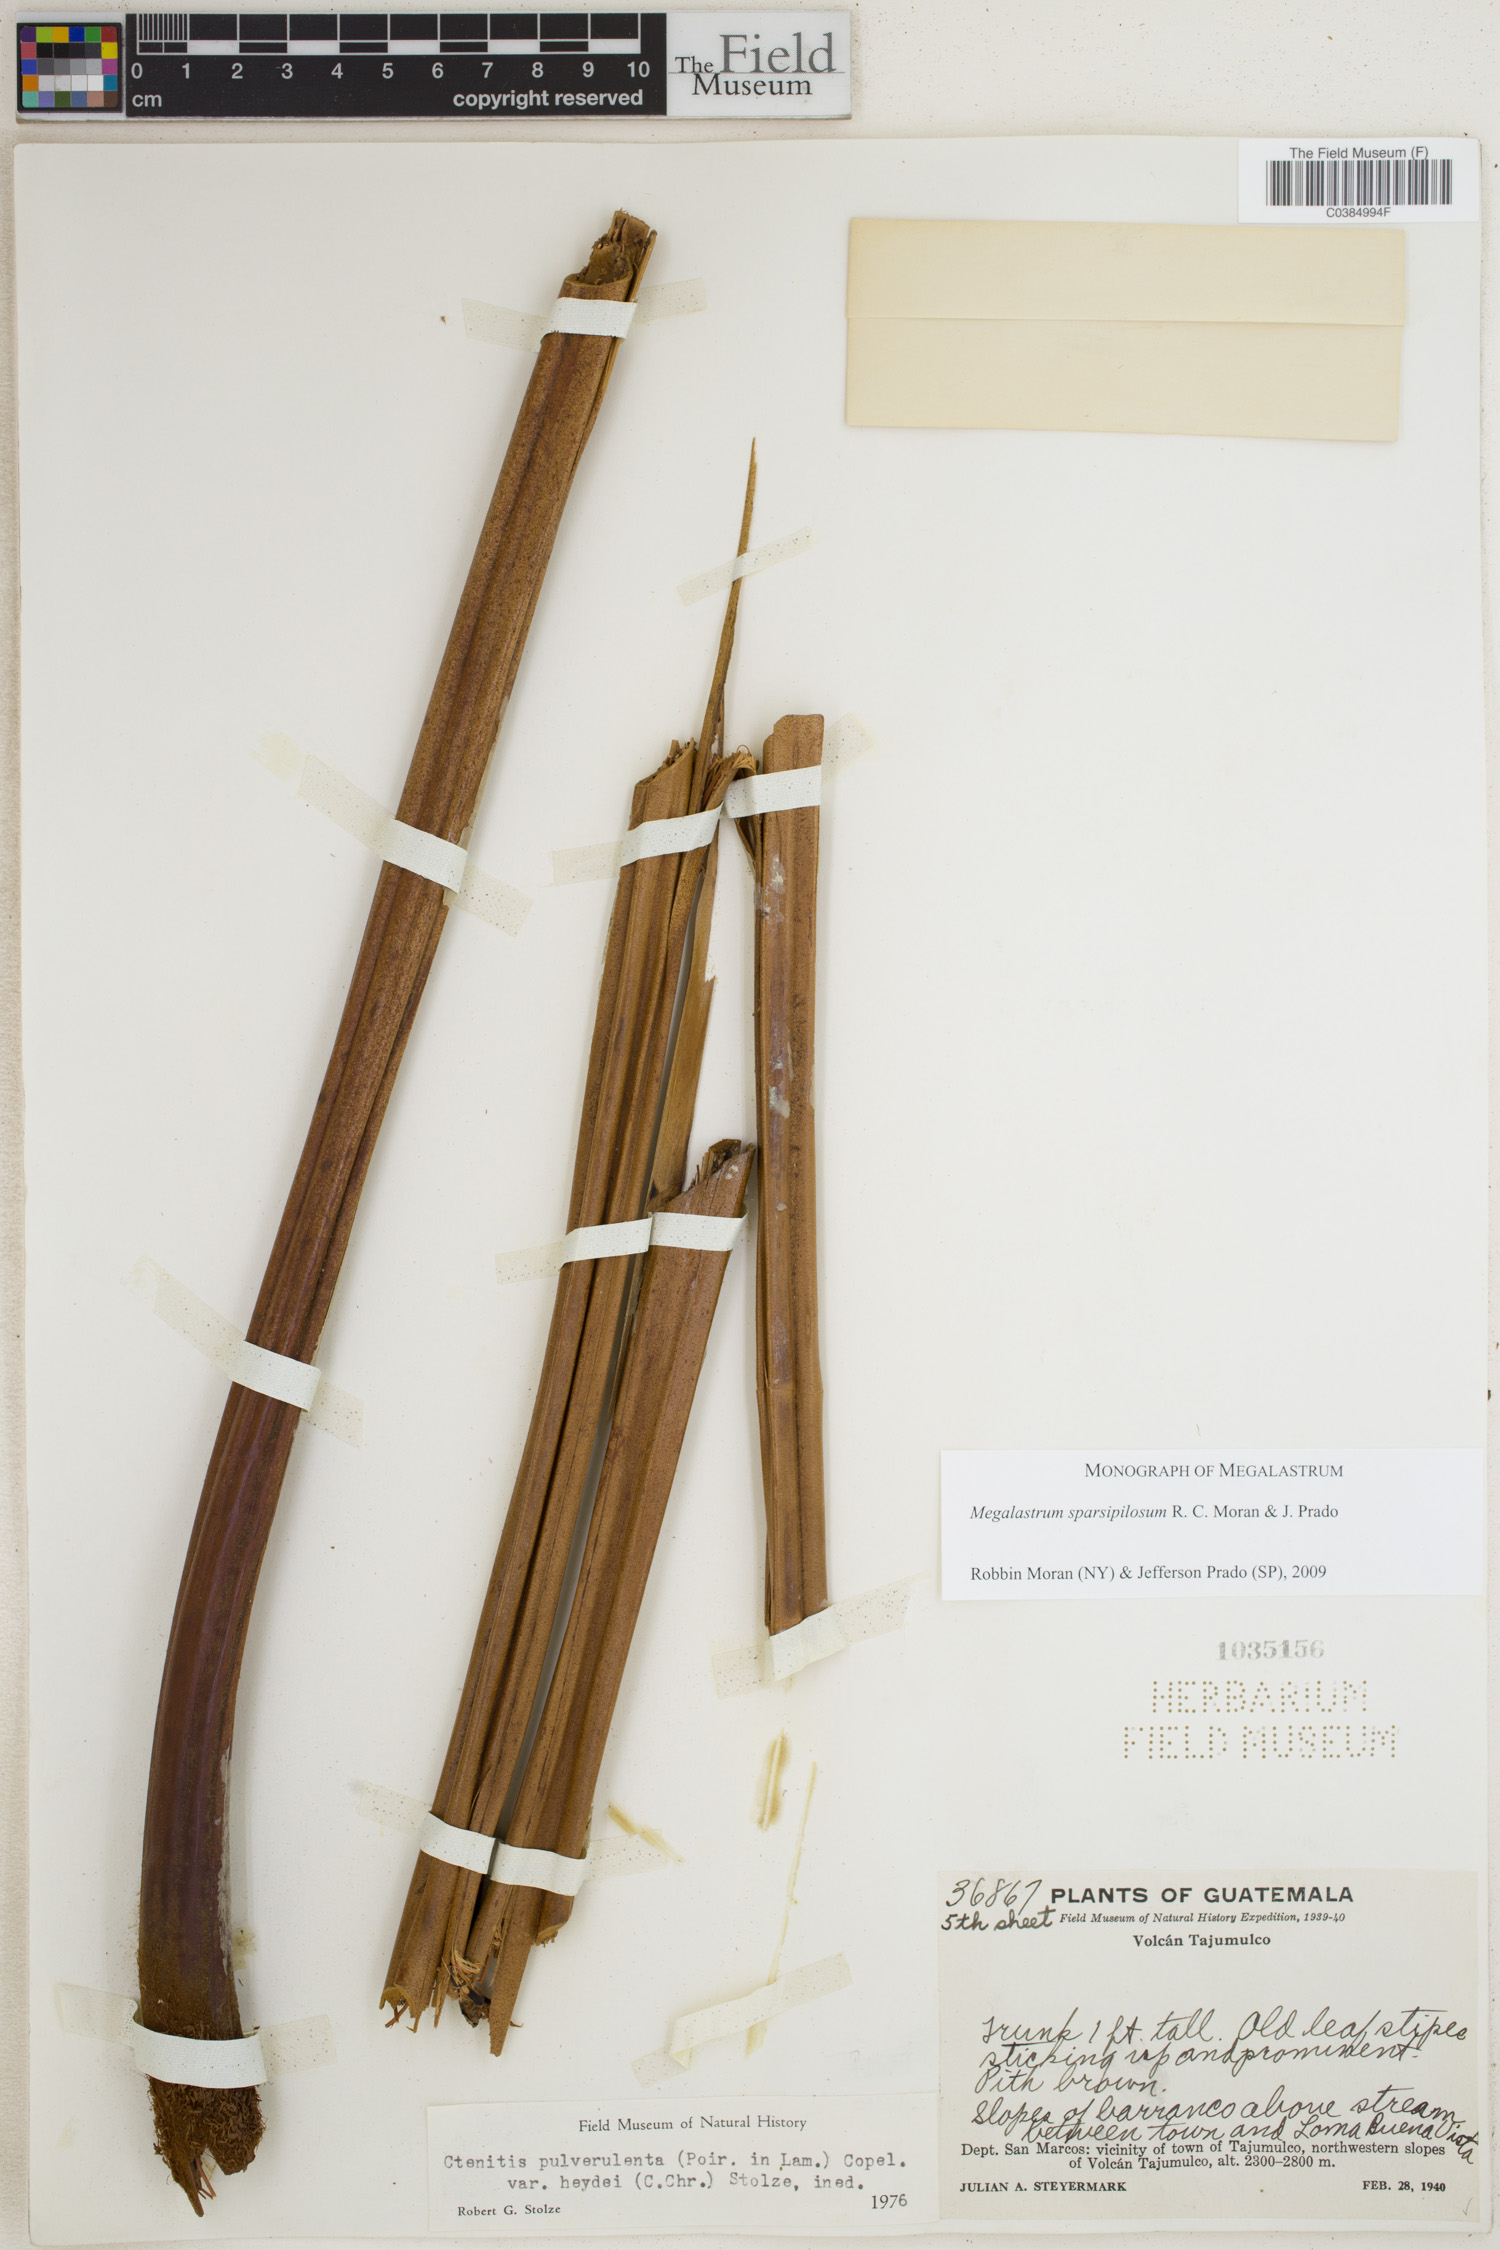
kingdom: Plantae
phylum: Tracheophyta
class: Polypodiopsida
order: Polypodiales
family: Dryopteridaceae
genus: Megalastrum
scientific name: Megalastrum sparsipilosum
